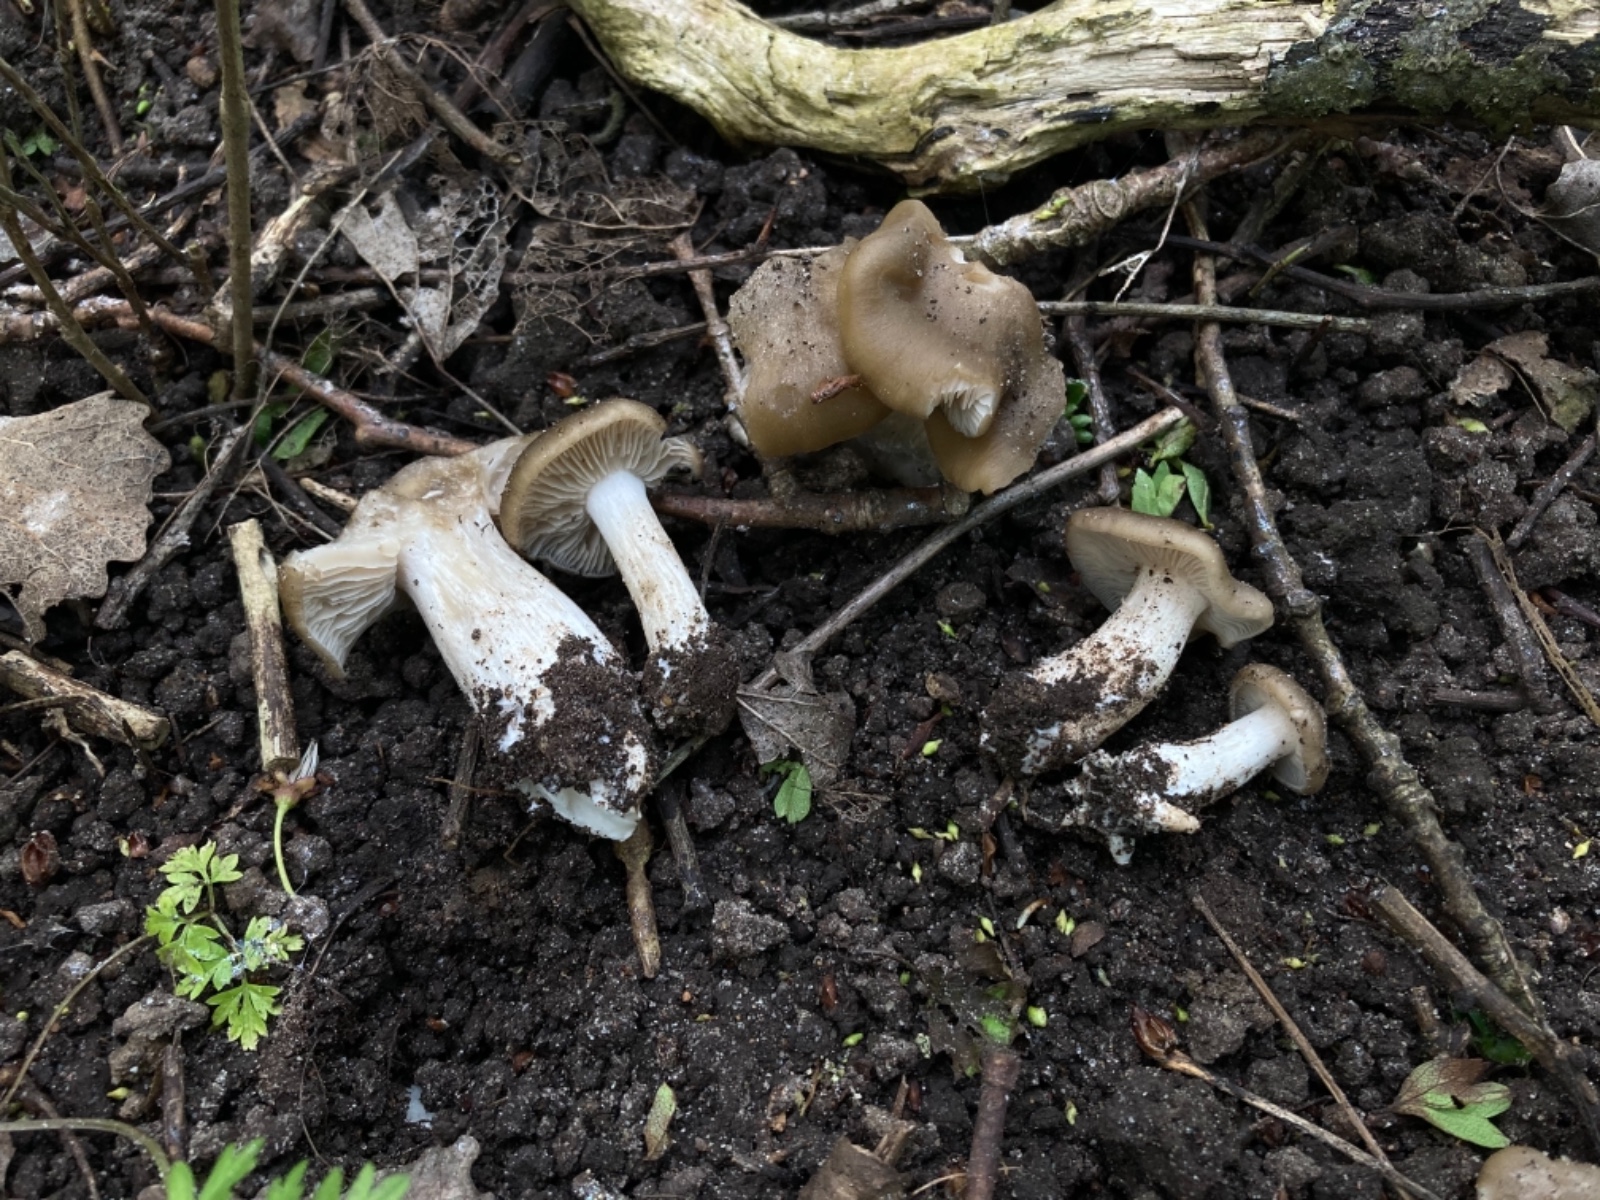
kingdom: Fungi
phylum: Basidiomycota
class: Agaricomycetes
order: Agaricales
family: Entolomataceae
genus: Entoloma
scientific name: Entoloma clypeatum
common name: flammet rødblad
